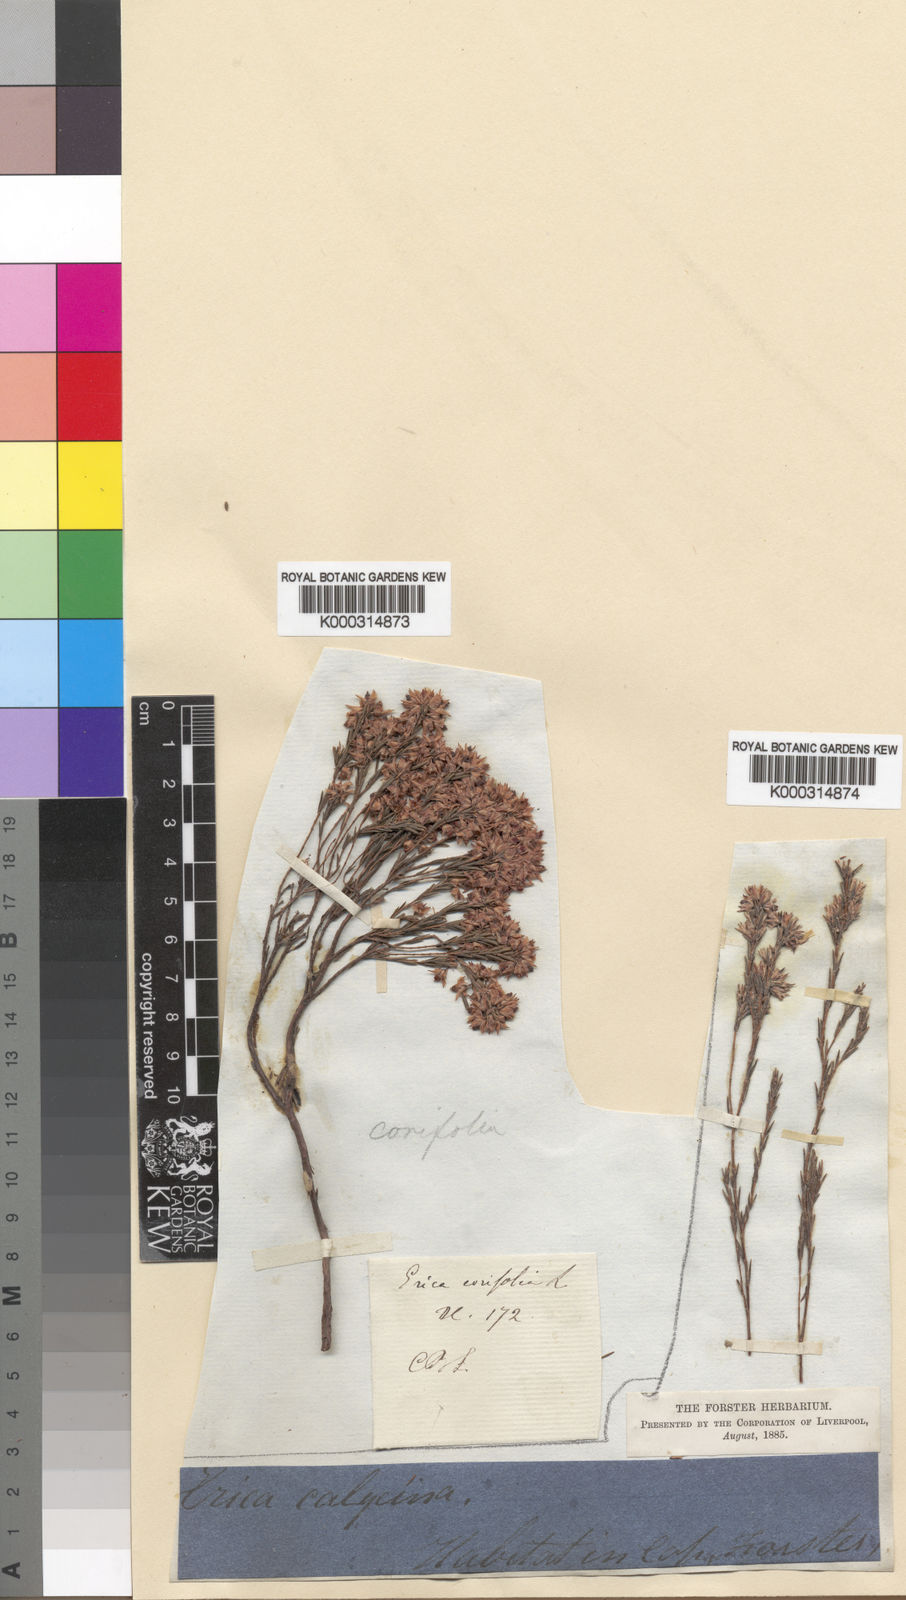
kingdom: Plantae
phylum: Tracheophyta
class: Magnoliopsida
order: Ericales
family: Ericaceae
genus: Erica
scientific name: Erica
